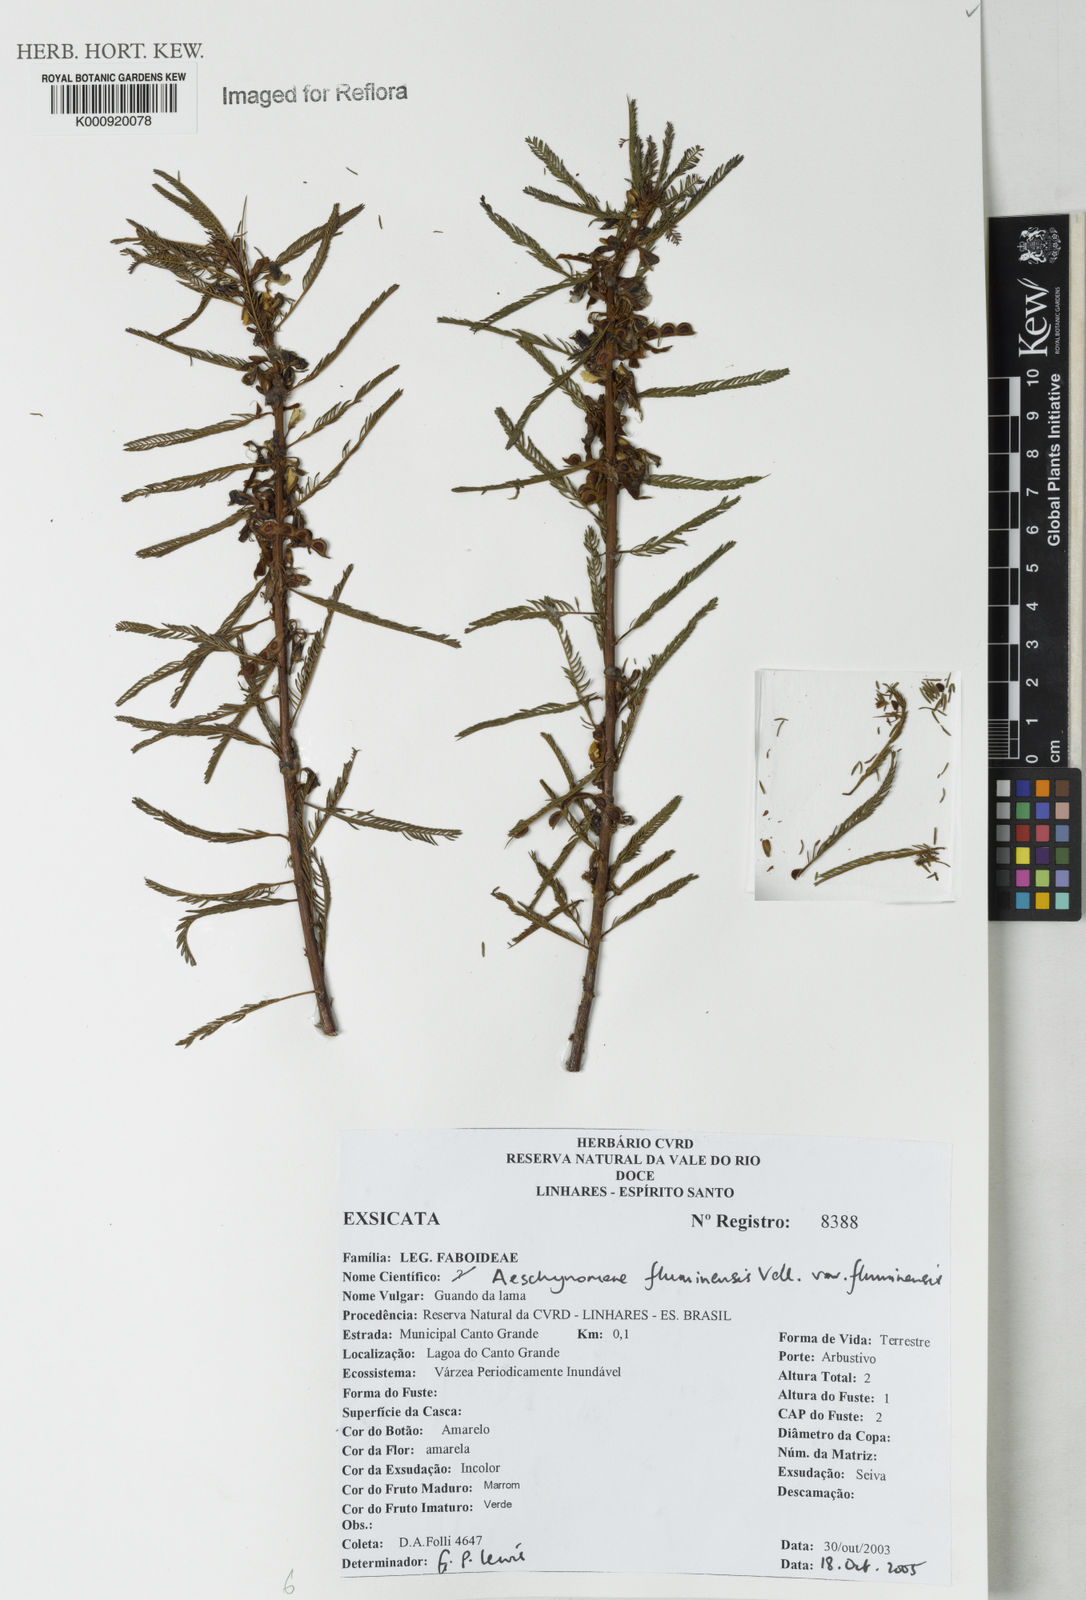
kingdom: Plantae
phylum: Tracheophyta
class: Magnoliopsida
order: Fabales
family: Fabaceae
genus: Aeschynomene
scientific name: Aeschynomene fluminensis
